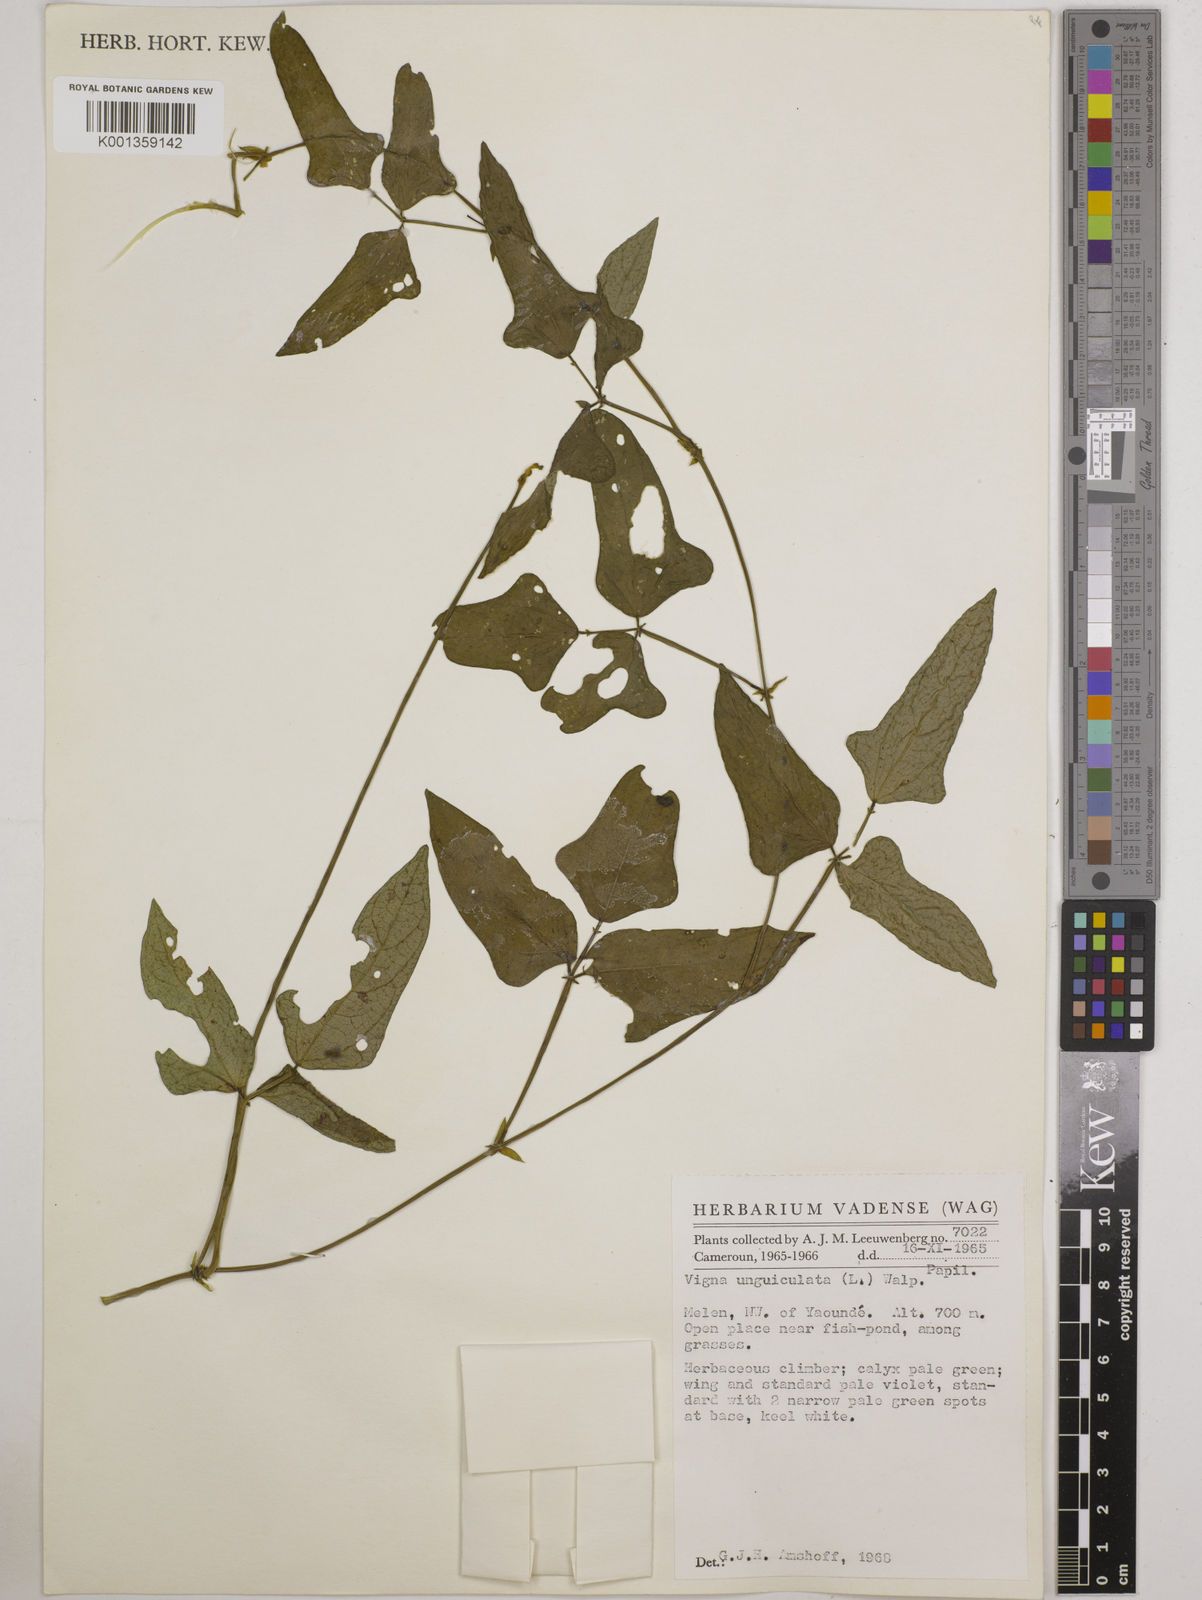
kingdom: Plantae
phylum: Tracheophyta
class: Magnoliopsida
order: Fabales
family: Fabaceae
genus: Vigna
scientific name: Vigna
